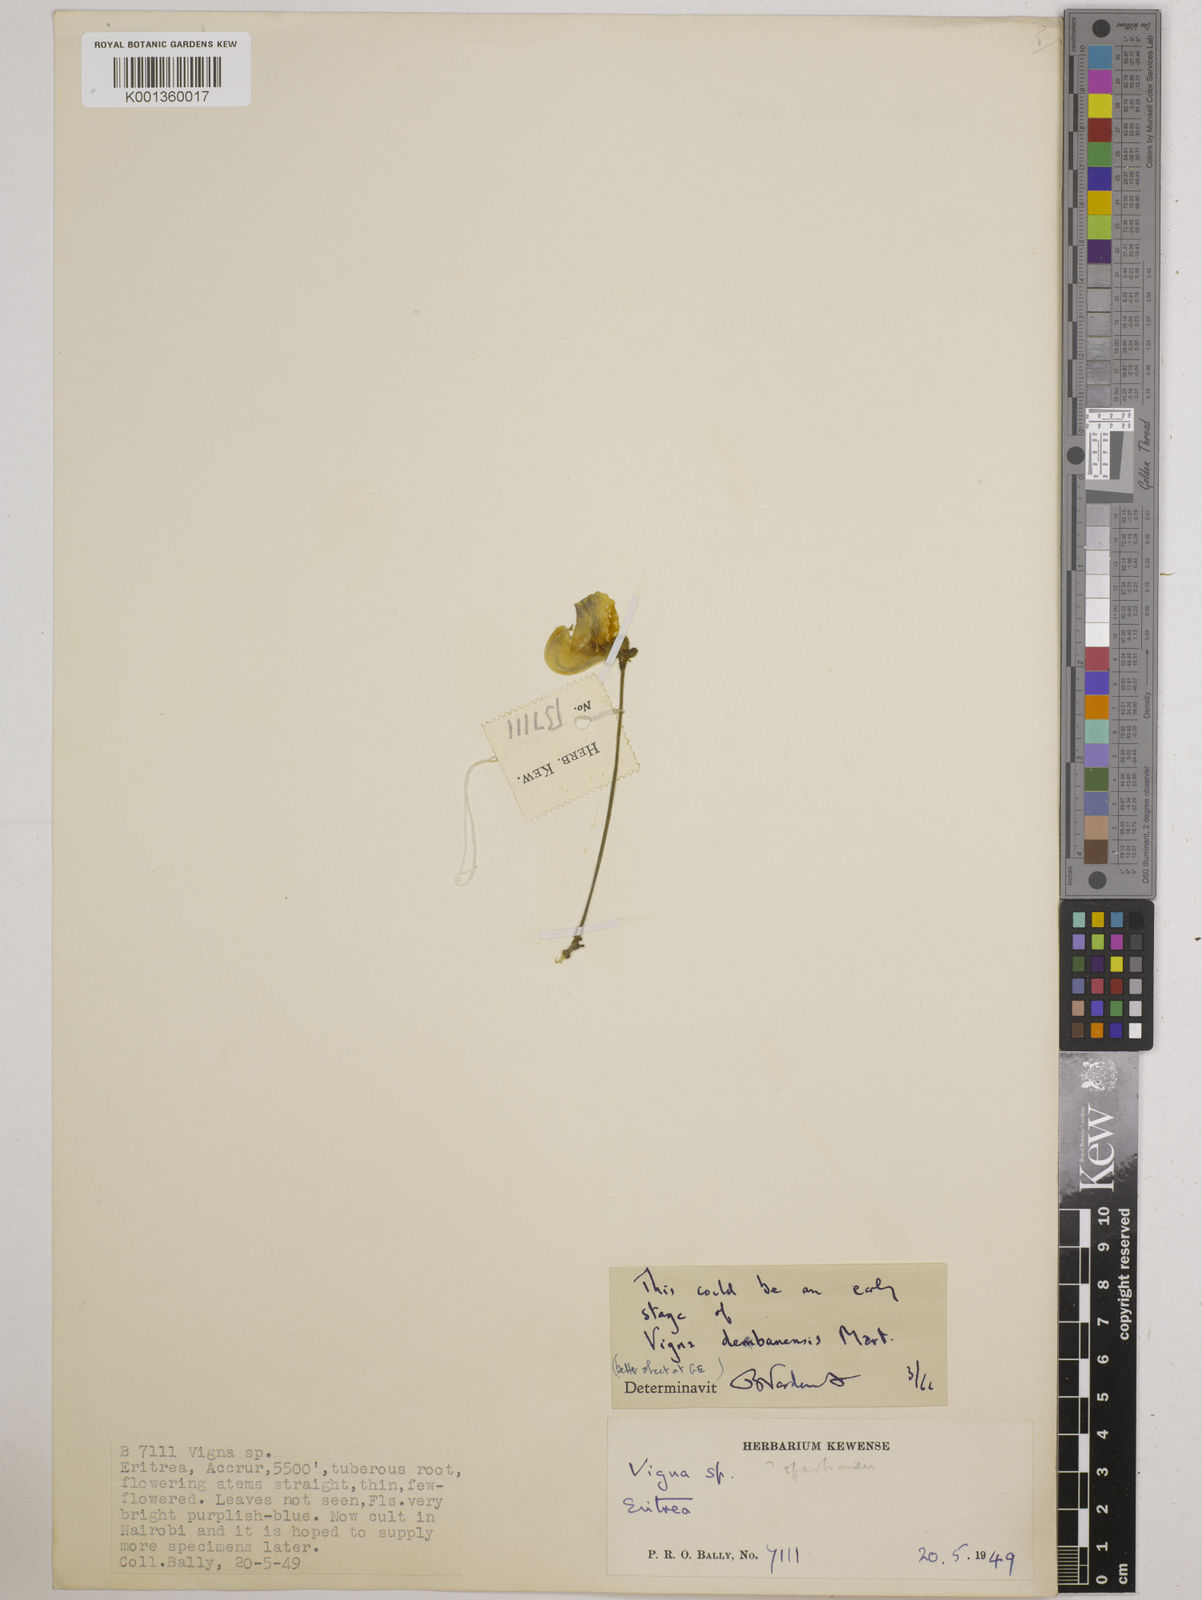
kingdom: Plantae
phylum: Tracheophyta
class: Magnoliopsida
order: Fabales
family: Fabaceae
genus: Vigna
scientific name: Vigna debanensis
